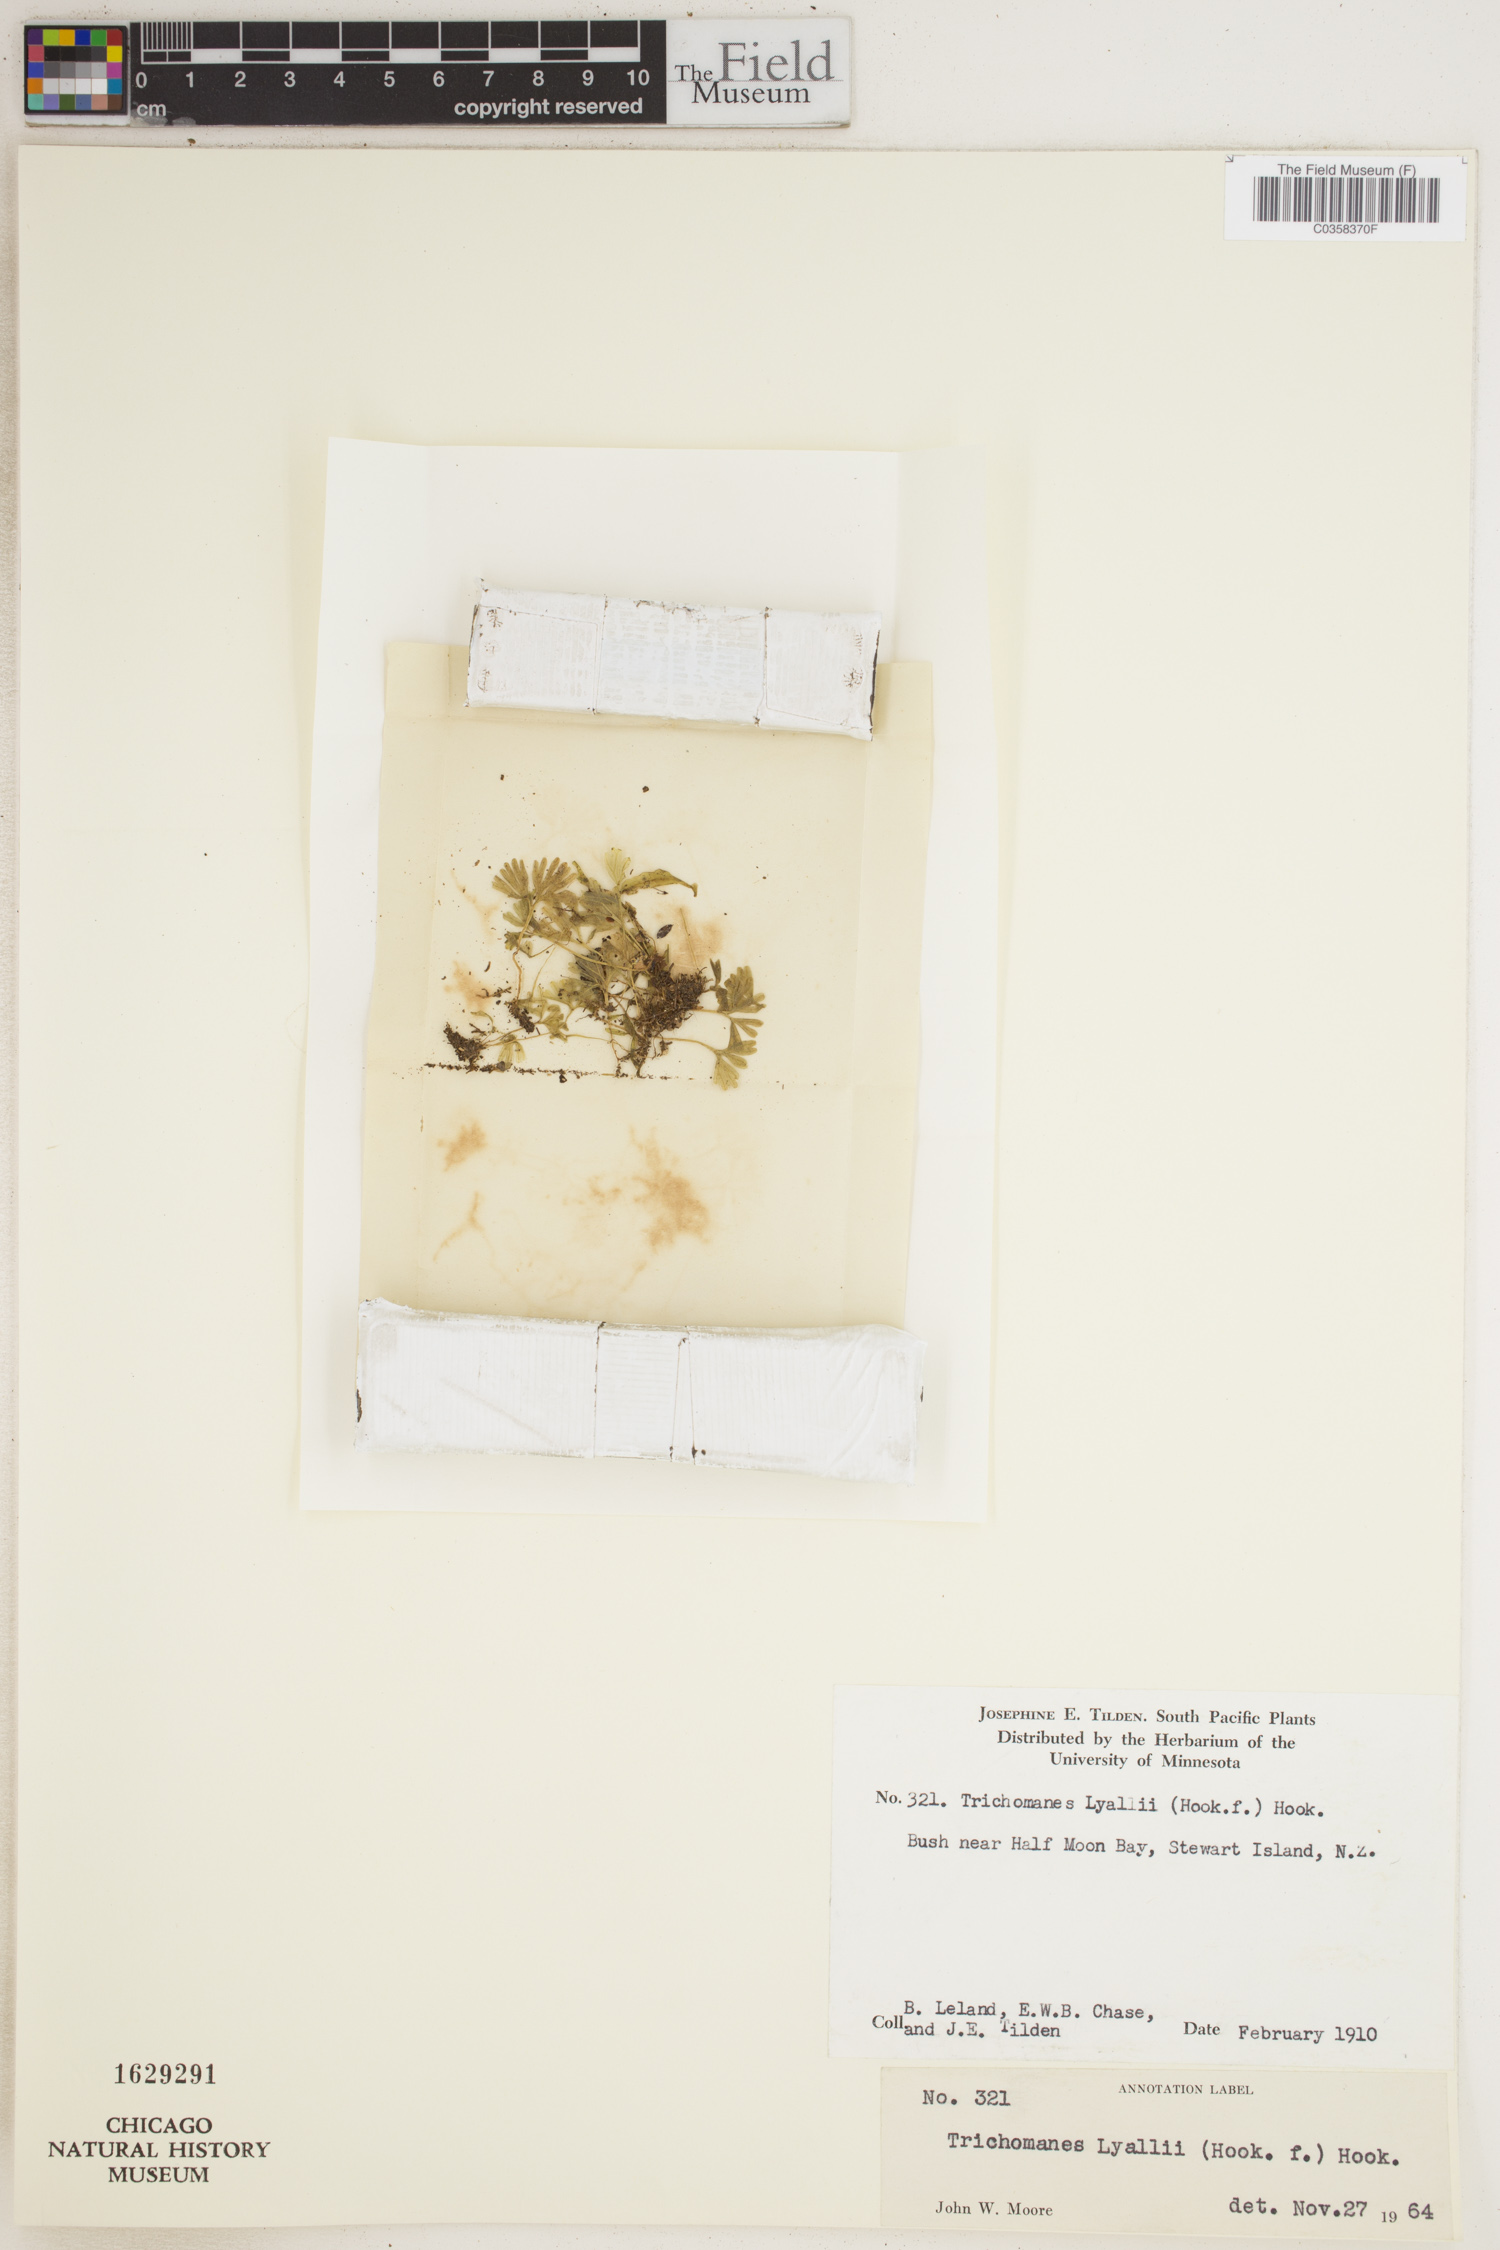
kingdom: Plantae
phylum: Tracheophyta
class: Polypodiopsida
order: Hymenophyllales
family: Hymenophyllaceae
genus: Hymenophyllum
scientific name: Hymenophyllum lyallii
